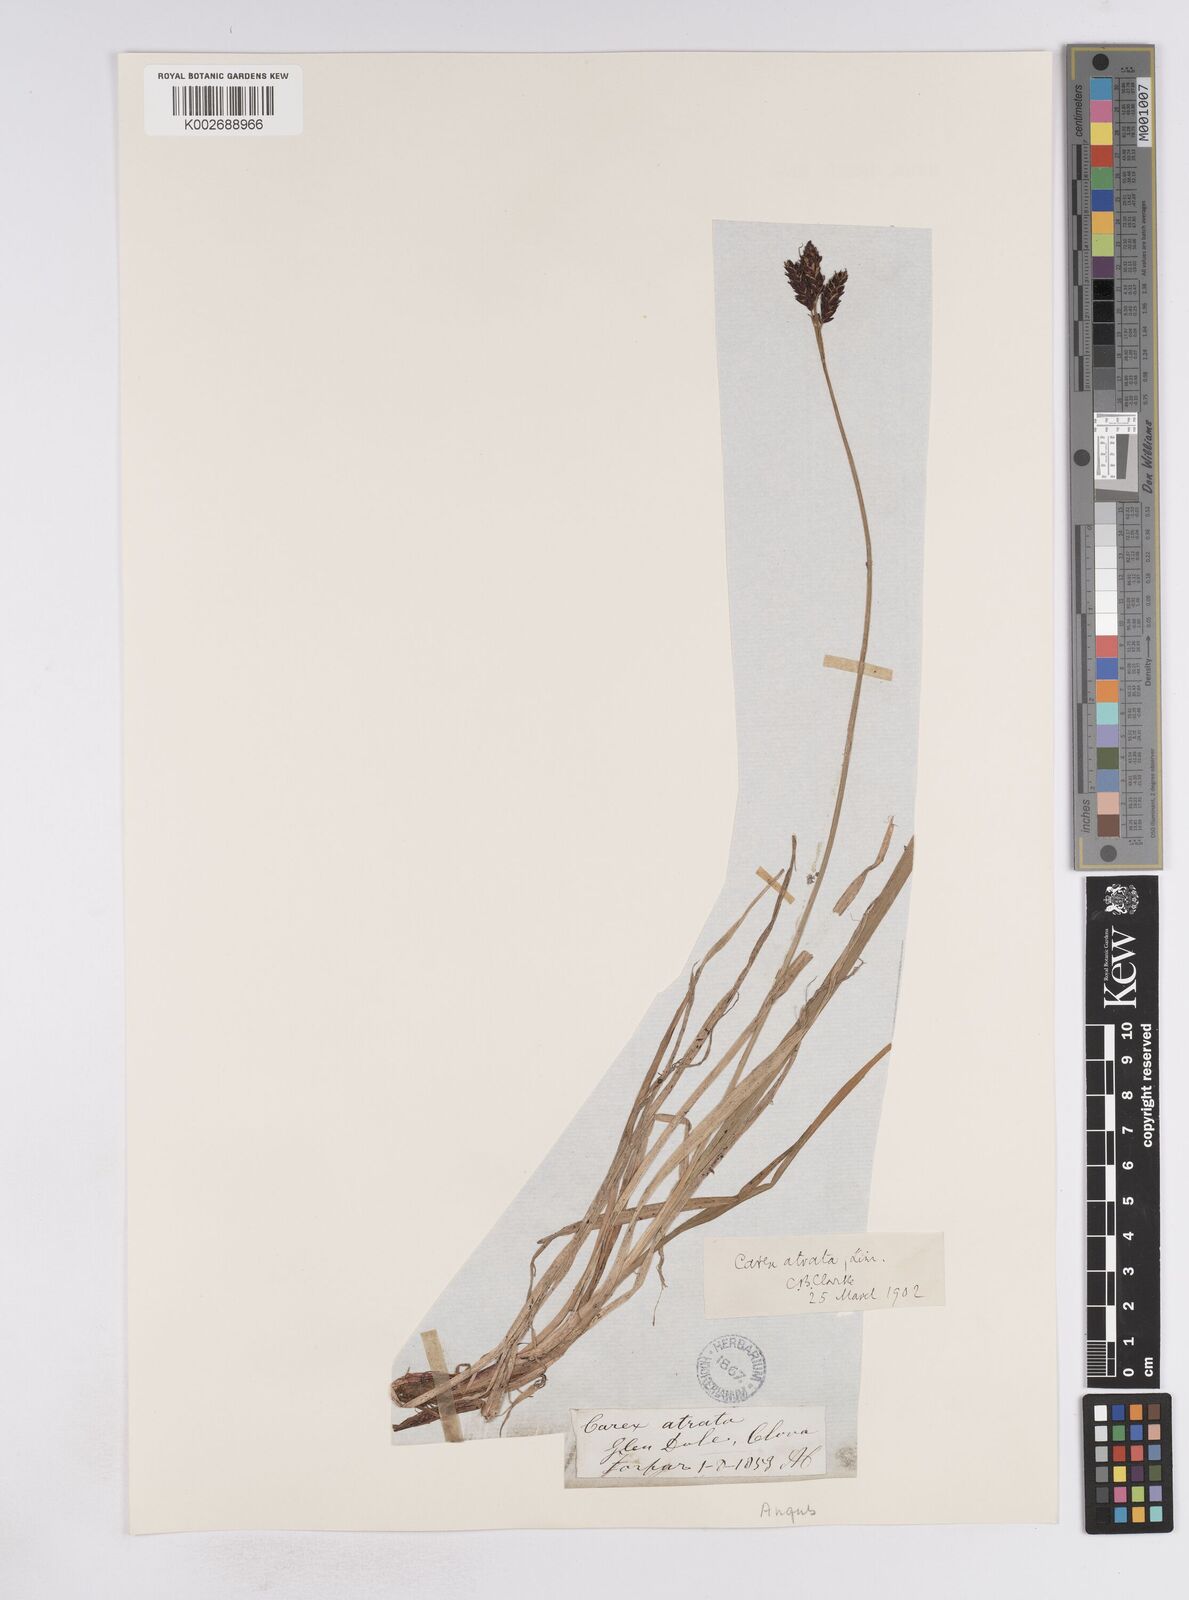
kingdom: Plantae
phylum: Tracheophyta
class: Liliopsida
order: Poales
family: Cyperaceae
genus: Carex
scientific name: Carex atrata
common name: Black alpine sedge
